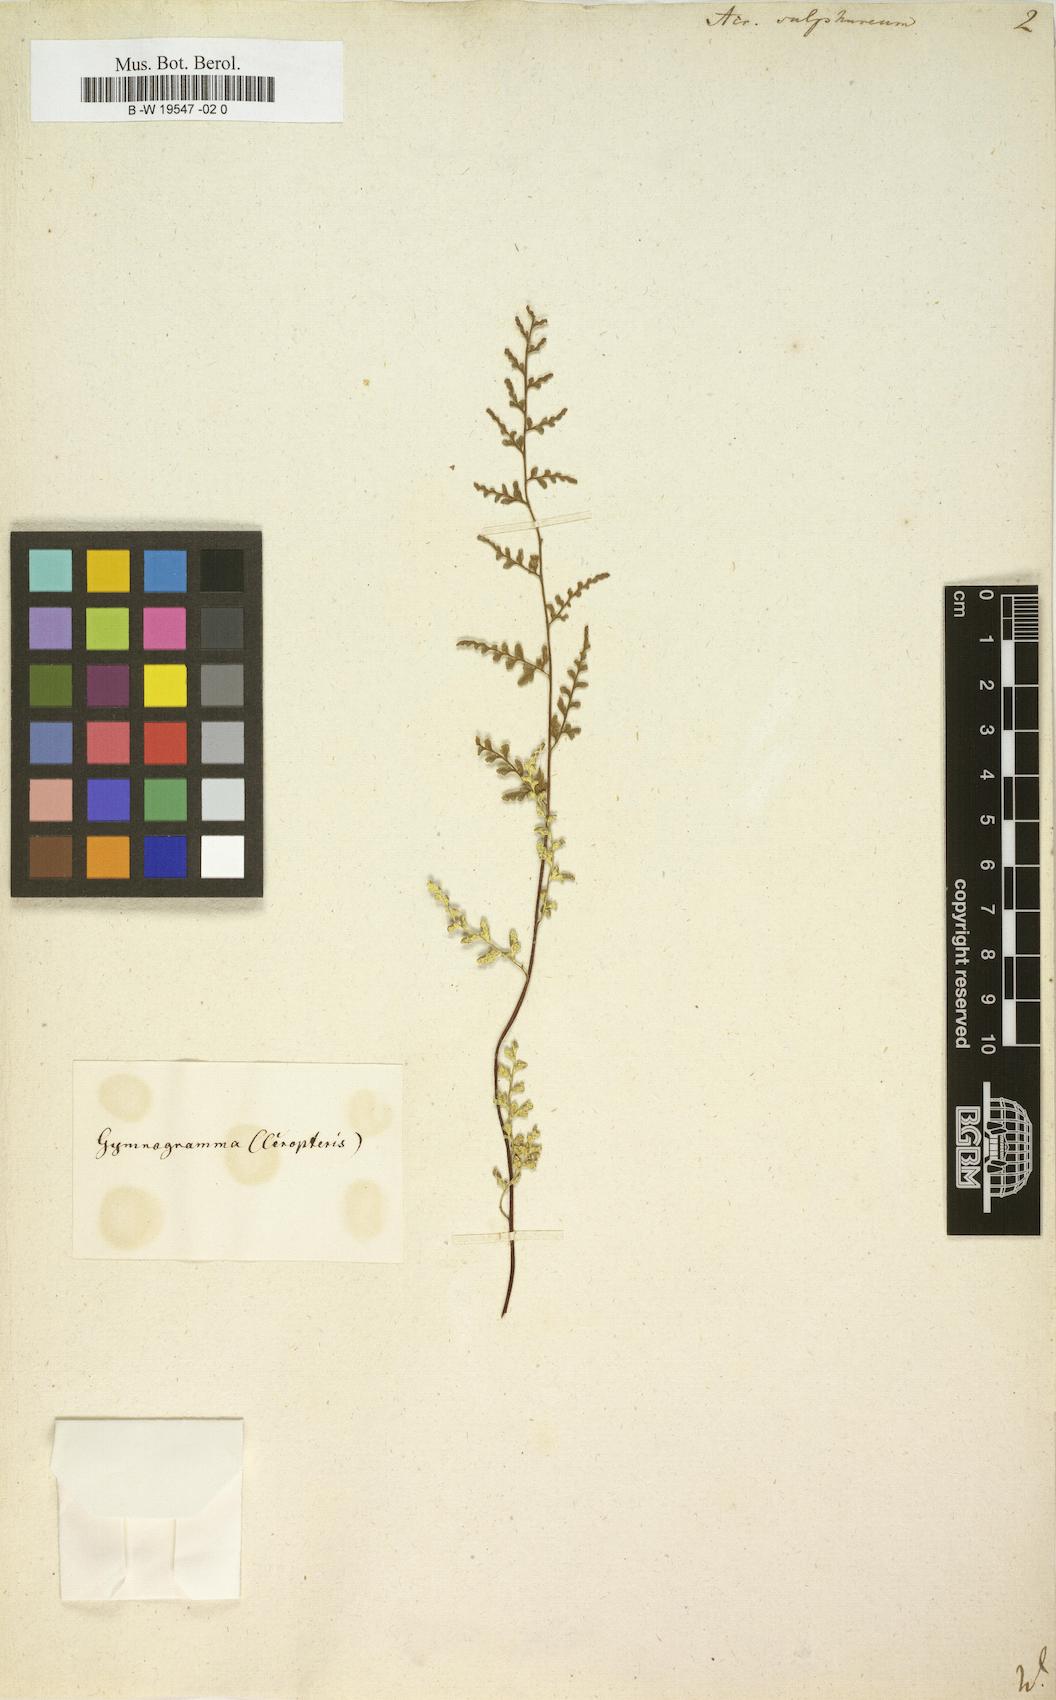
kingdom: Plantae
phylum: Tracheophyta
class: Polypodiopsida
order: Polypodiales
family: Pteridaceae
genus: Pityrogramma
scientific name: Pityrogramma sulphurea
